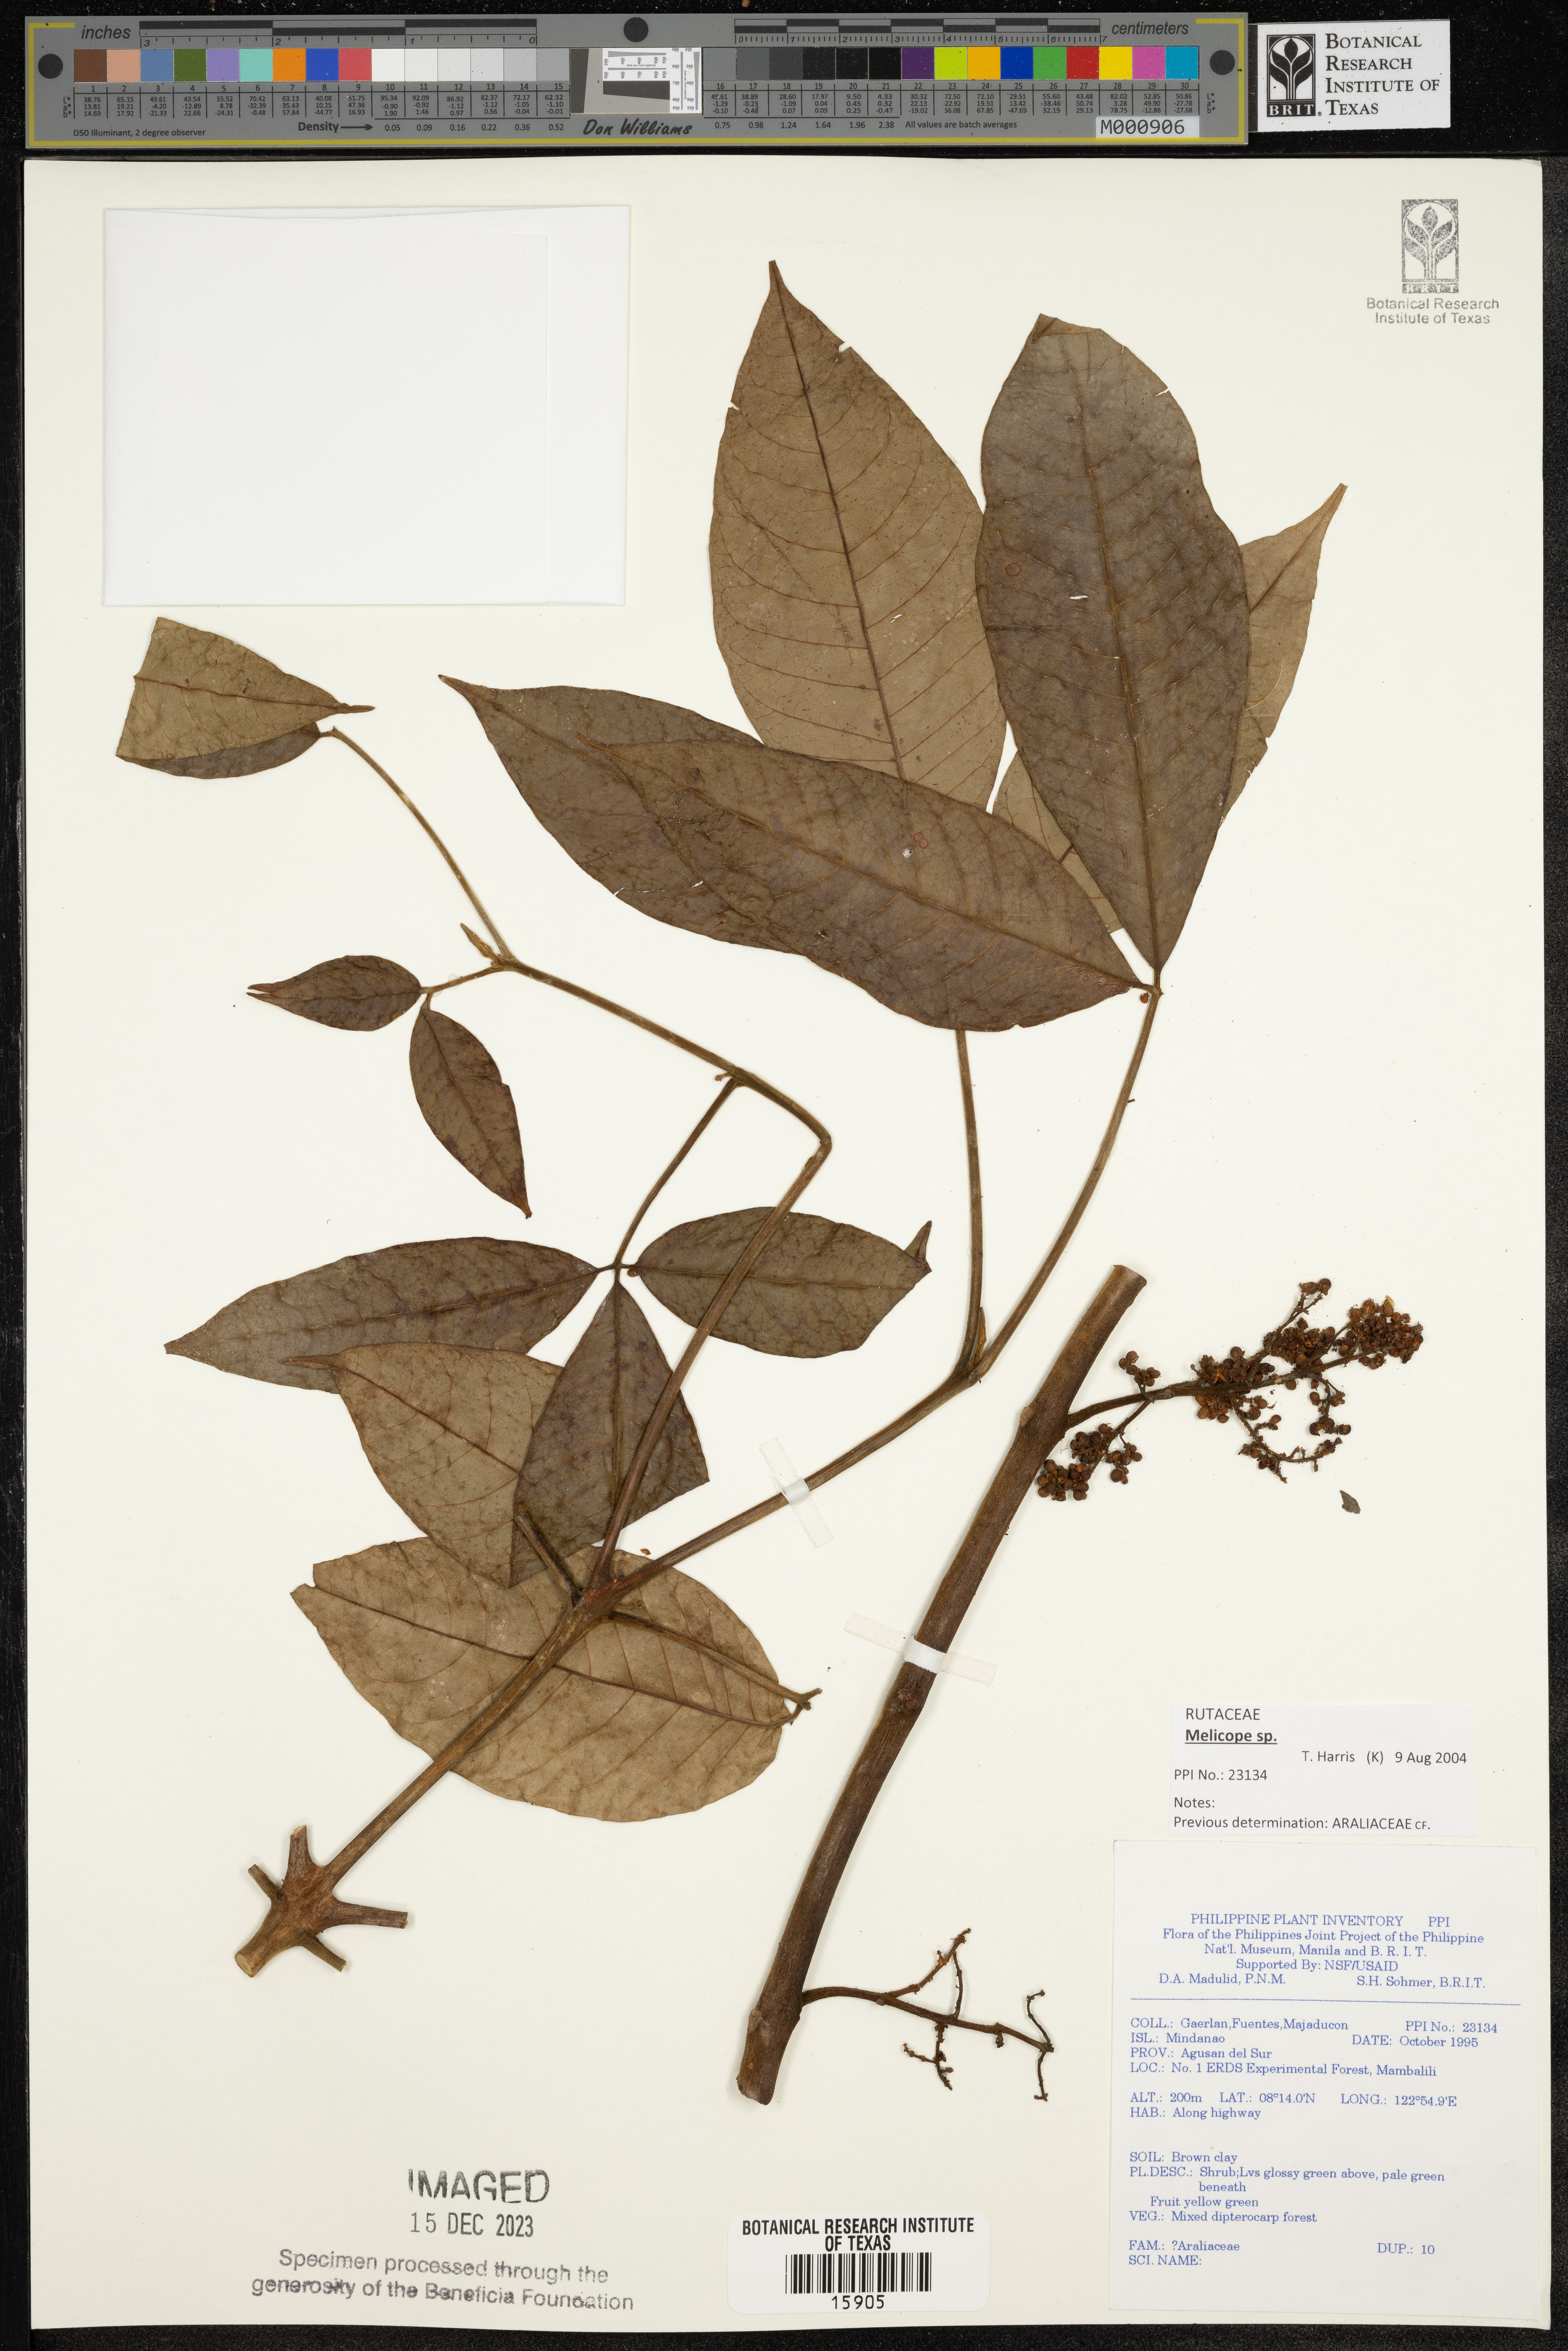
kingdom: Plantae
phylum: Tracheophyta
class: Magnoliopsida
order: Apiales
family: Araliaceae
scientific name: Araliaceae
